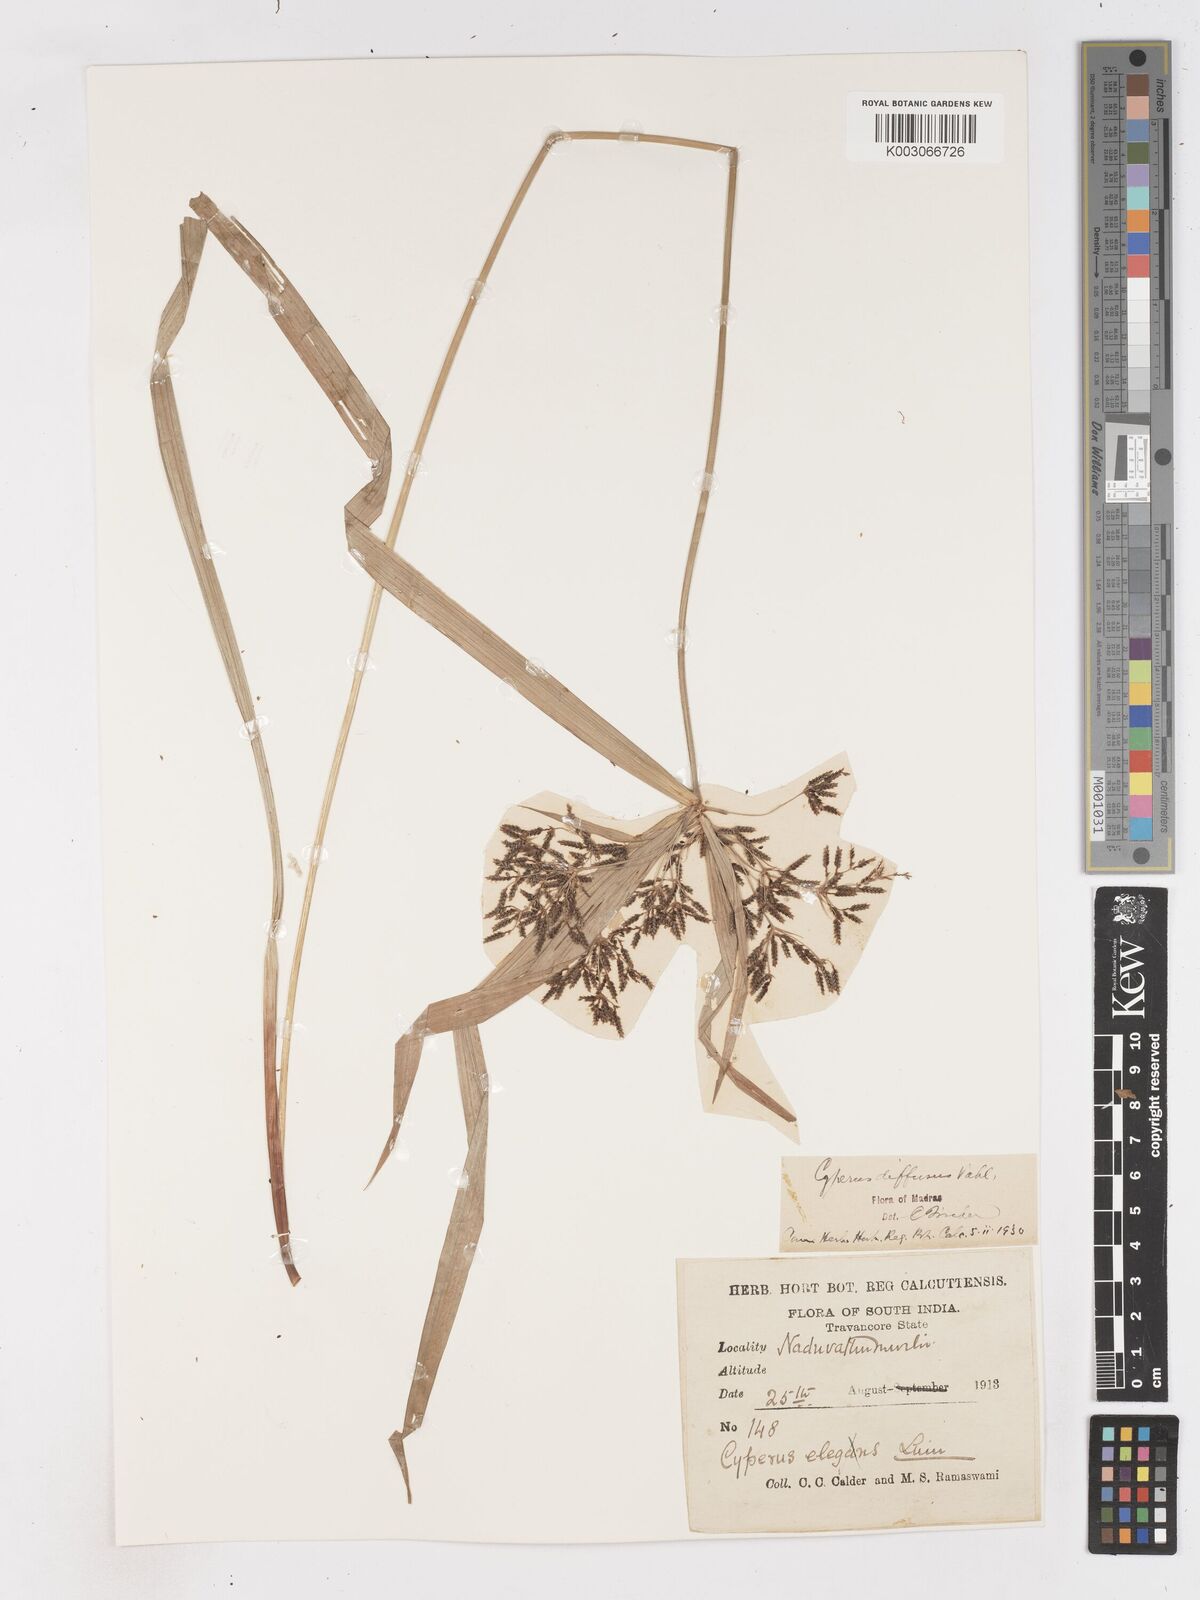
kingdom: Plantae
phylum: Tracheophyta
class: Liliopsida
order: Poales
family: Cyperaceae
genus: Cyperus
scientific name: Cyperus diffusus
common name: Dwarf umbrella grass
